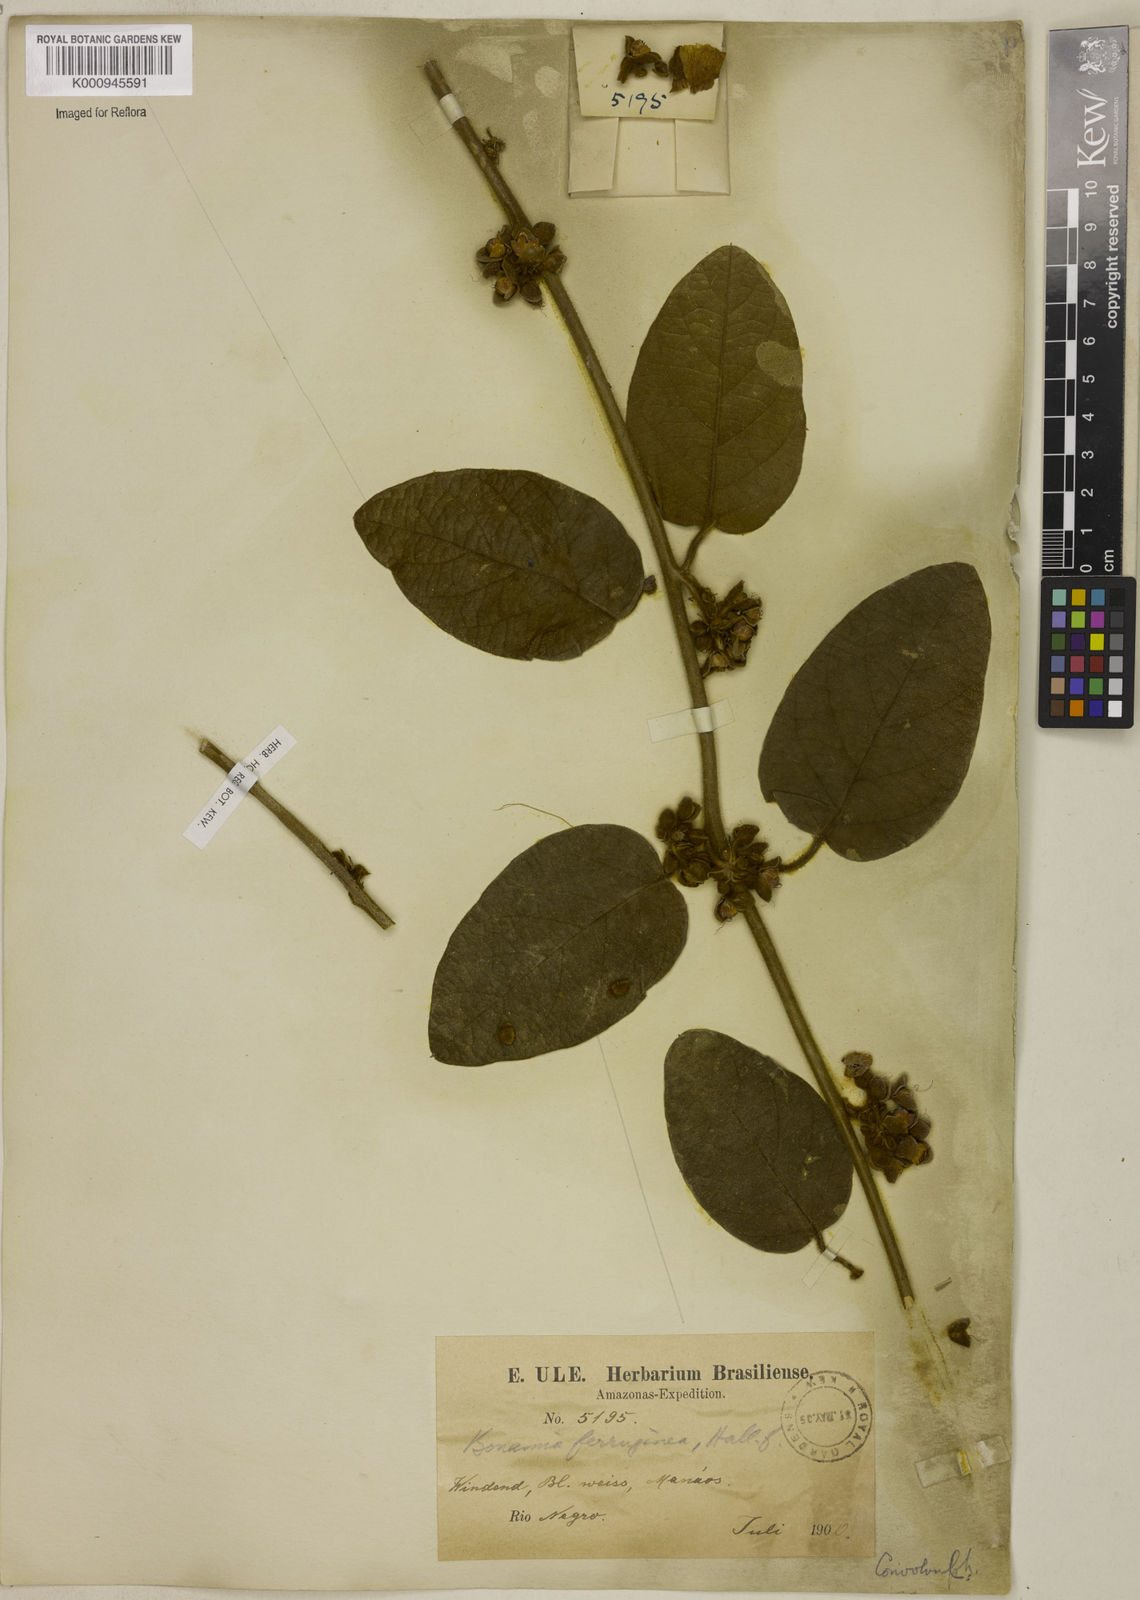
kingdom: Plantae
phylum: Tracheophyta
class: Magnoliopsida
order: Solanales
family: Convolvulaceae
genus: Bonamia
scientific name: Bonamia ferruginea
